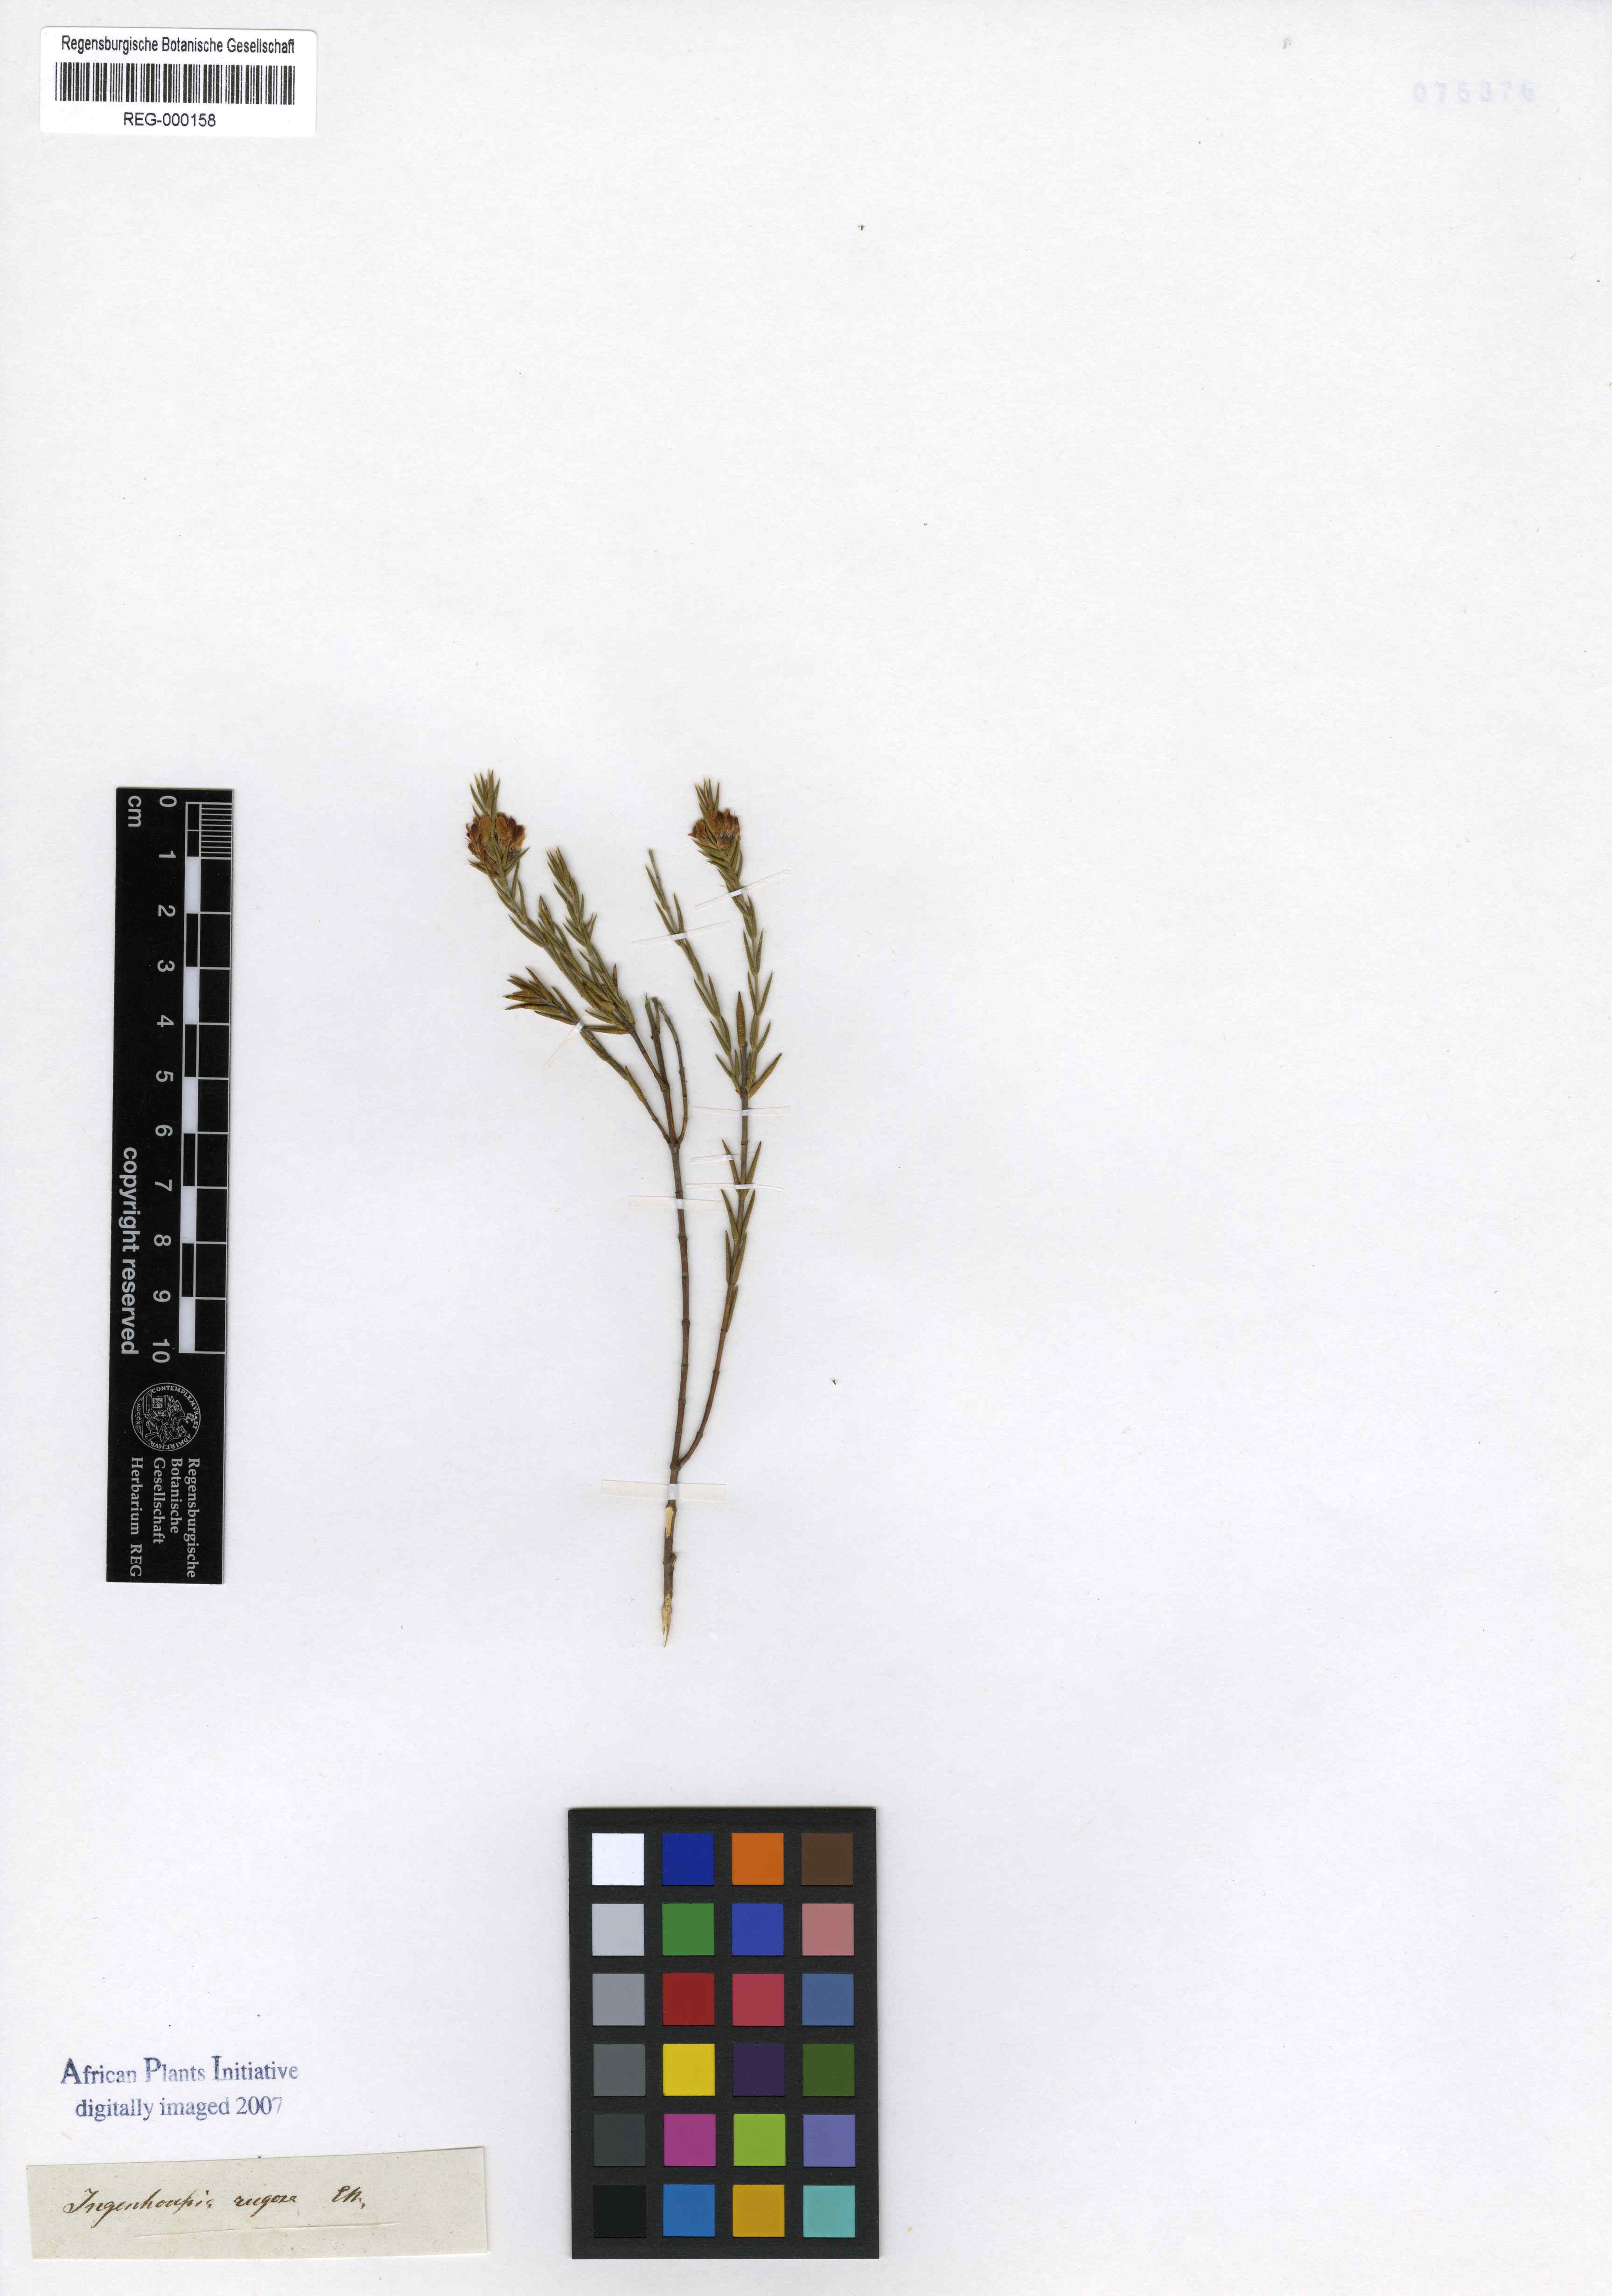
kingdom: Plantae
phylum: Tracheophyta
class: Magnoliopsida
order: Fabales
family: Fabaceae
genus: Amphithalea
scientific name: Amphithalea ciliaris
